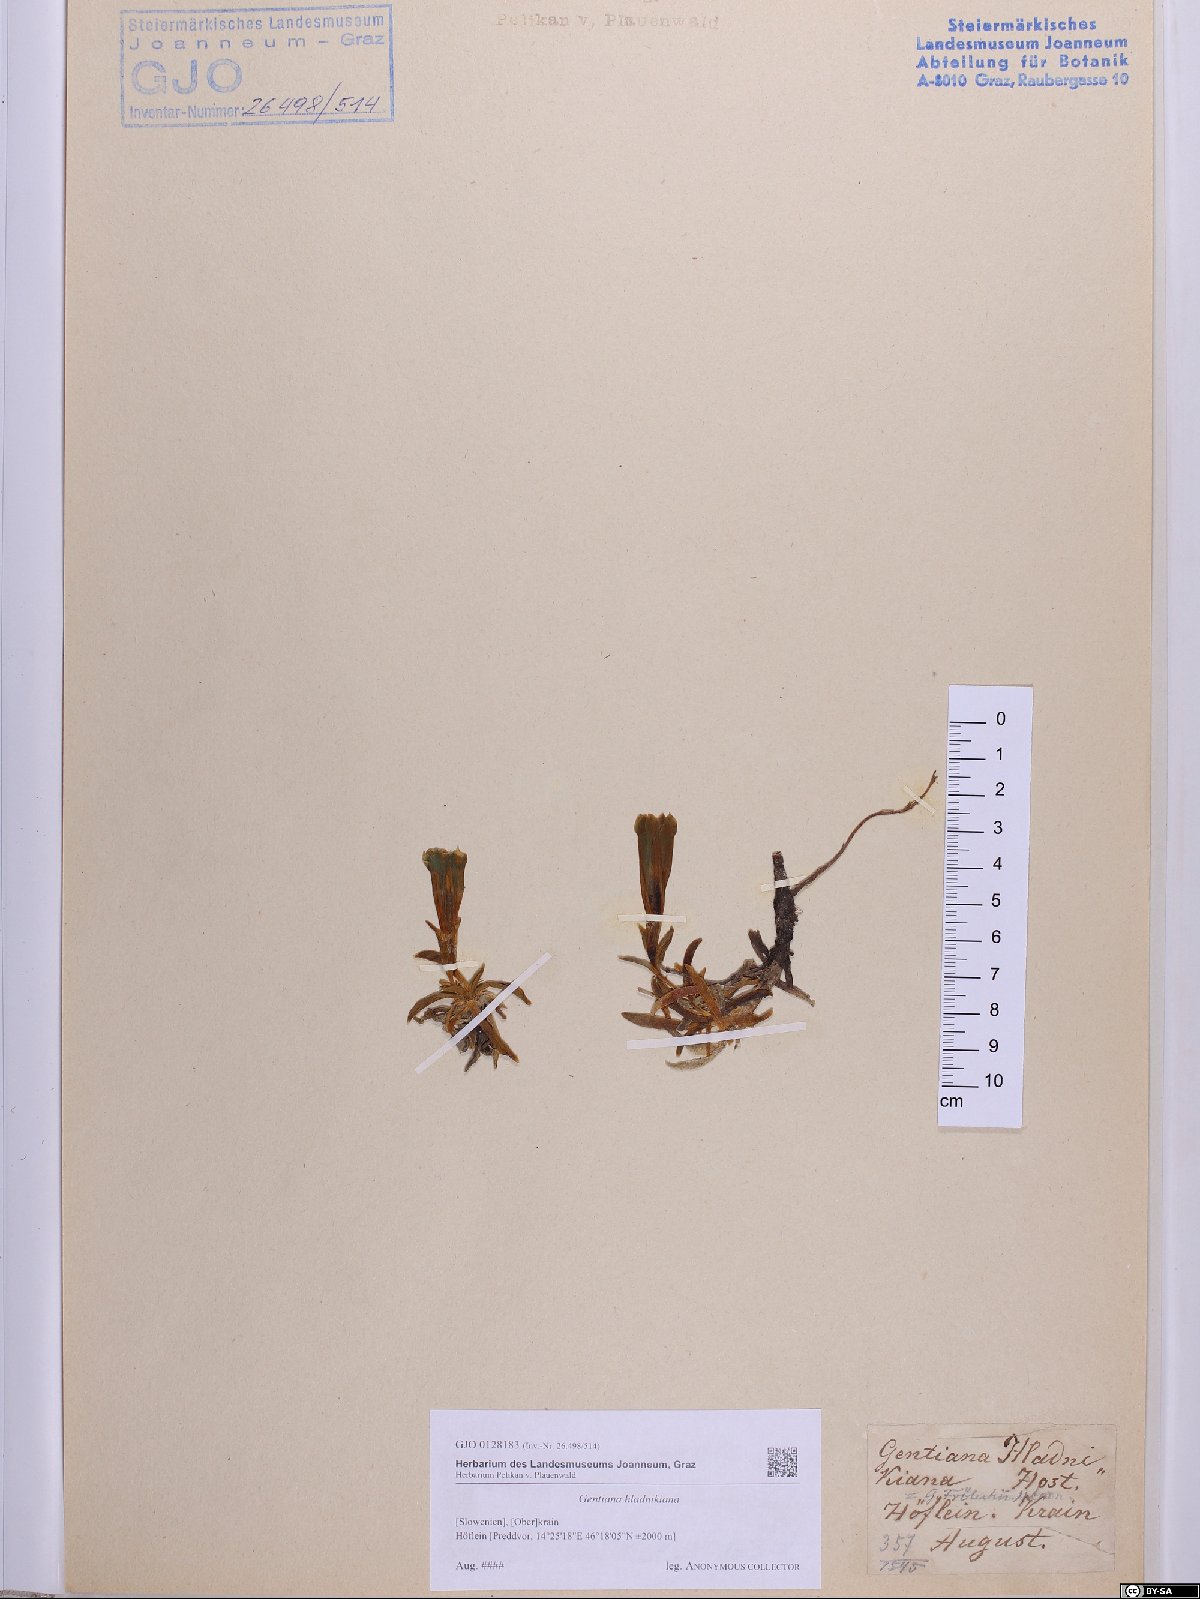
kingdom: Plantae
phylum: Tracheophyta
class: Magnoliopsida
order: Gentianales
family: Gentianaceae
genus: Gentiana
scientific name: Gentiana froelichii
